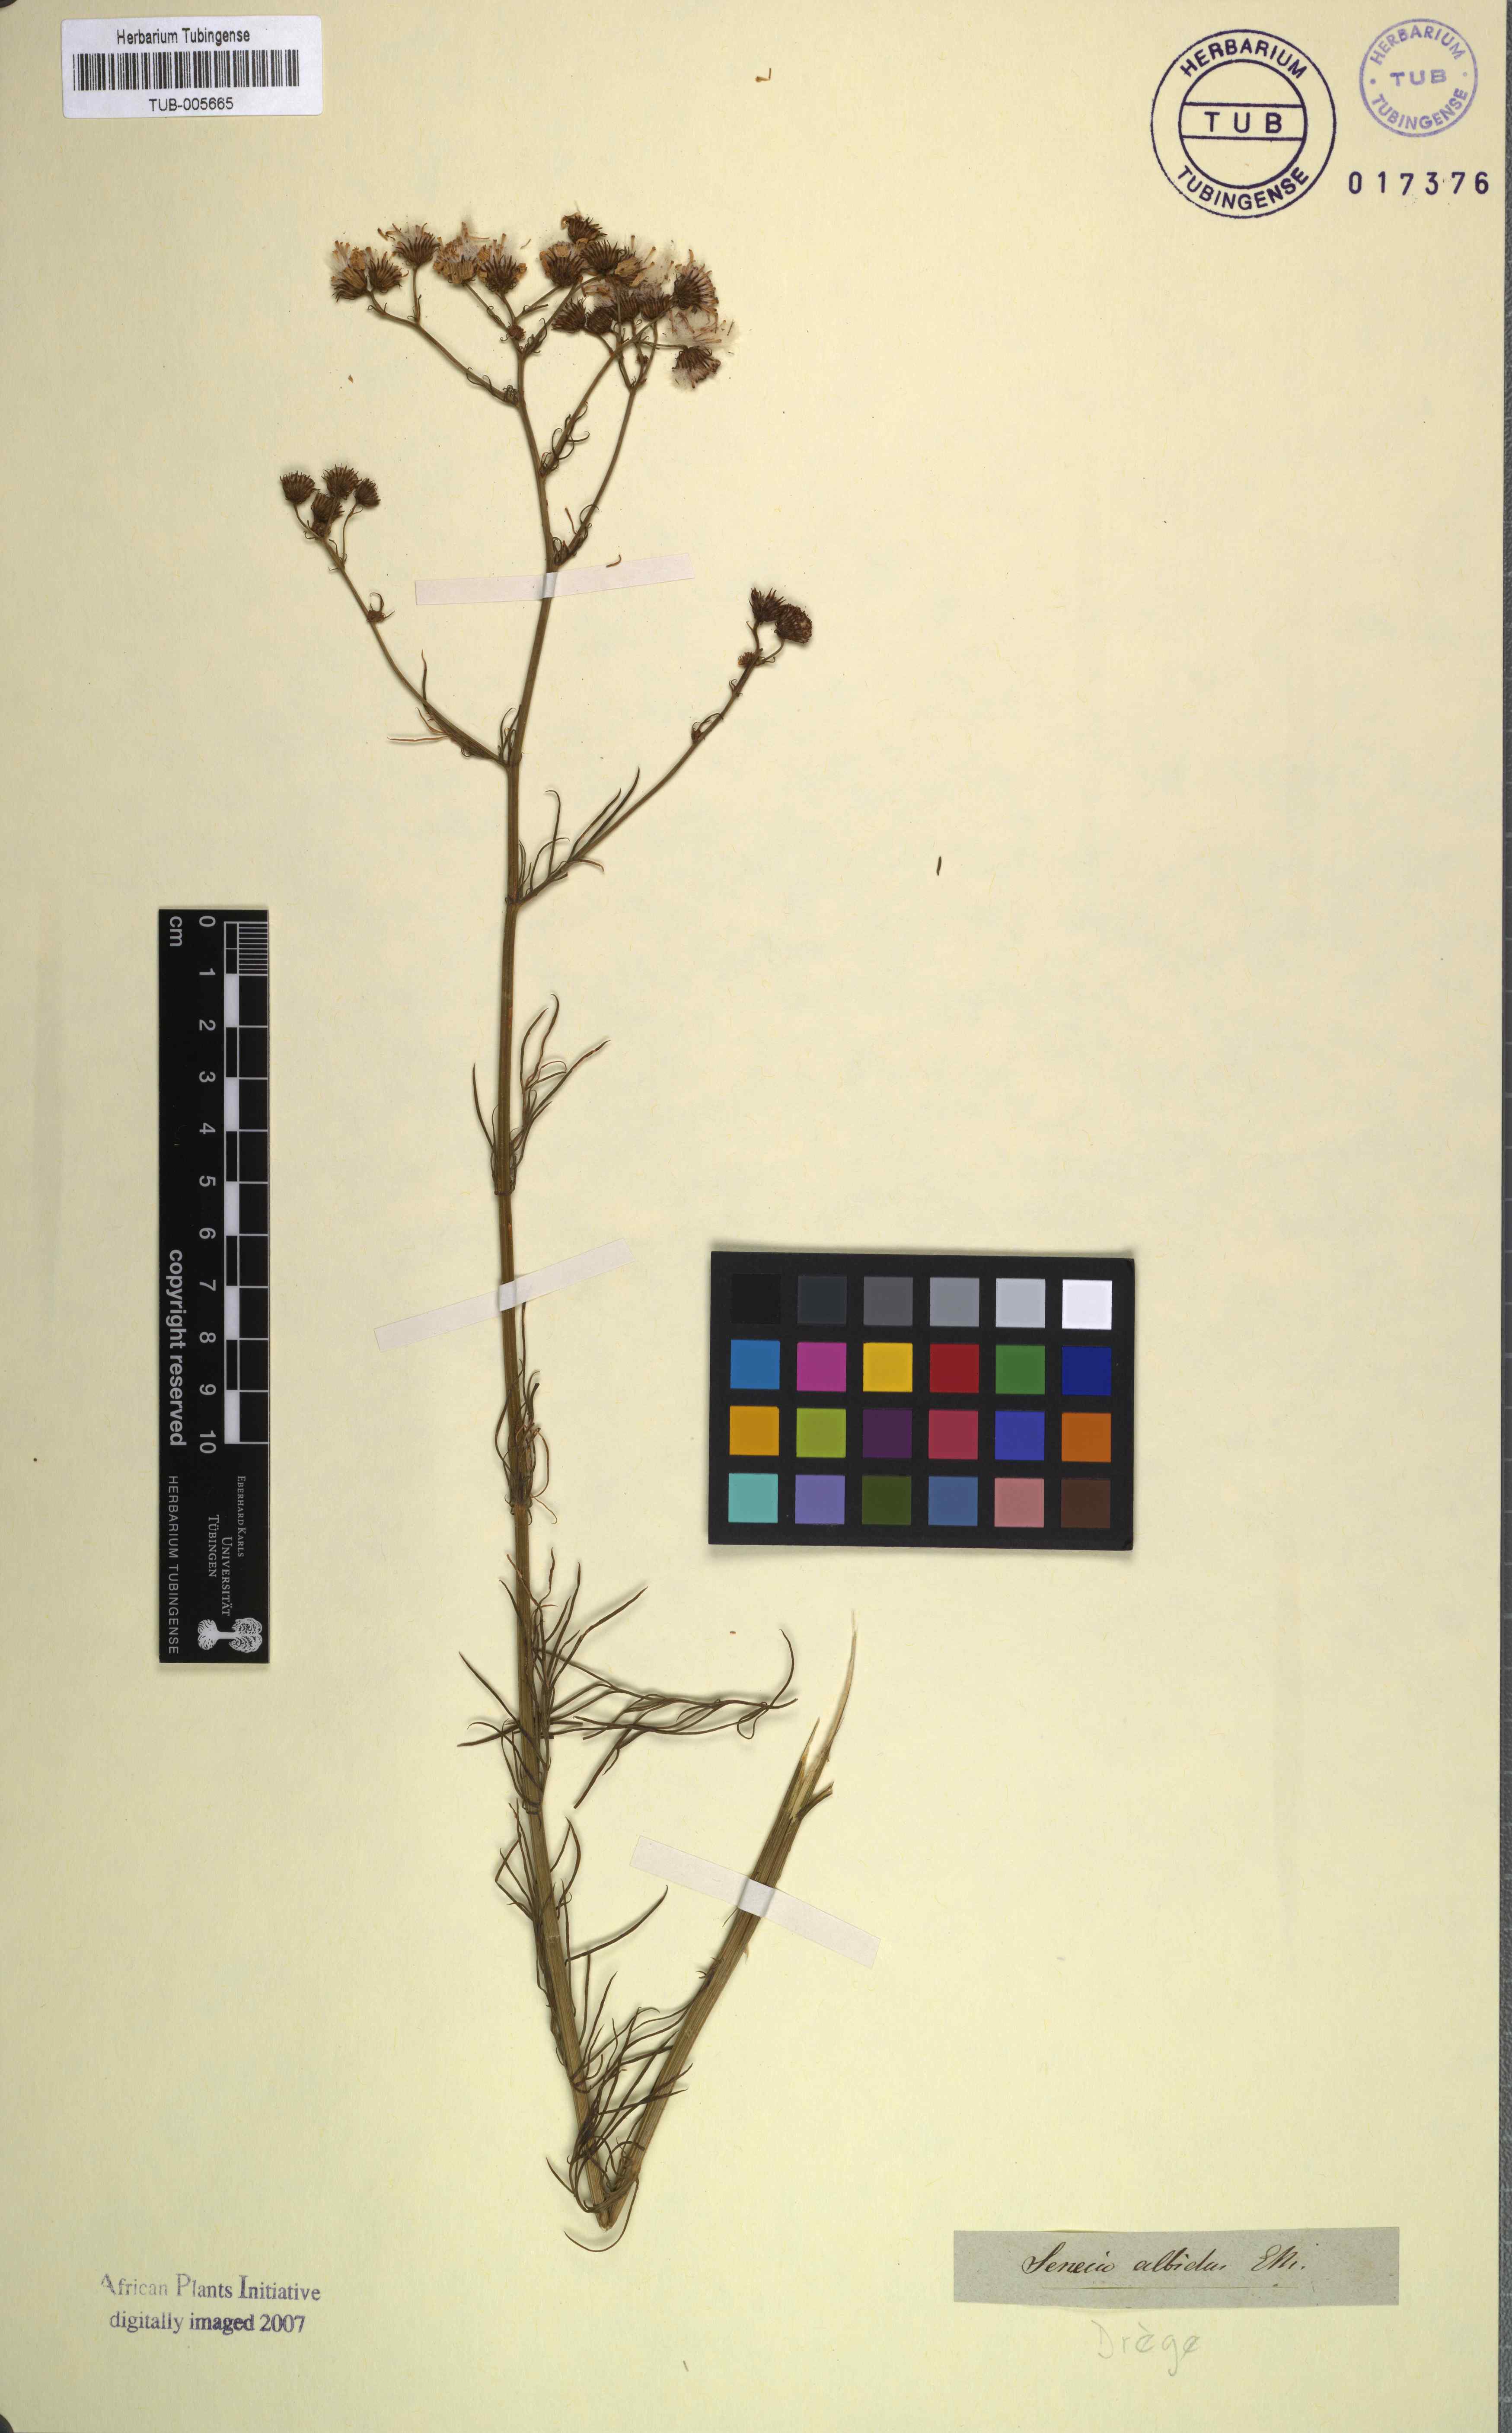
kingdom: Plantae
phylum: Tracheophyta
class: Magnoliopsida
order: Asterales
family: Asteraceae
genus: Senecio
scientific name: Senecio grandiflorus
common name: Purple ragwort
